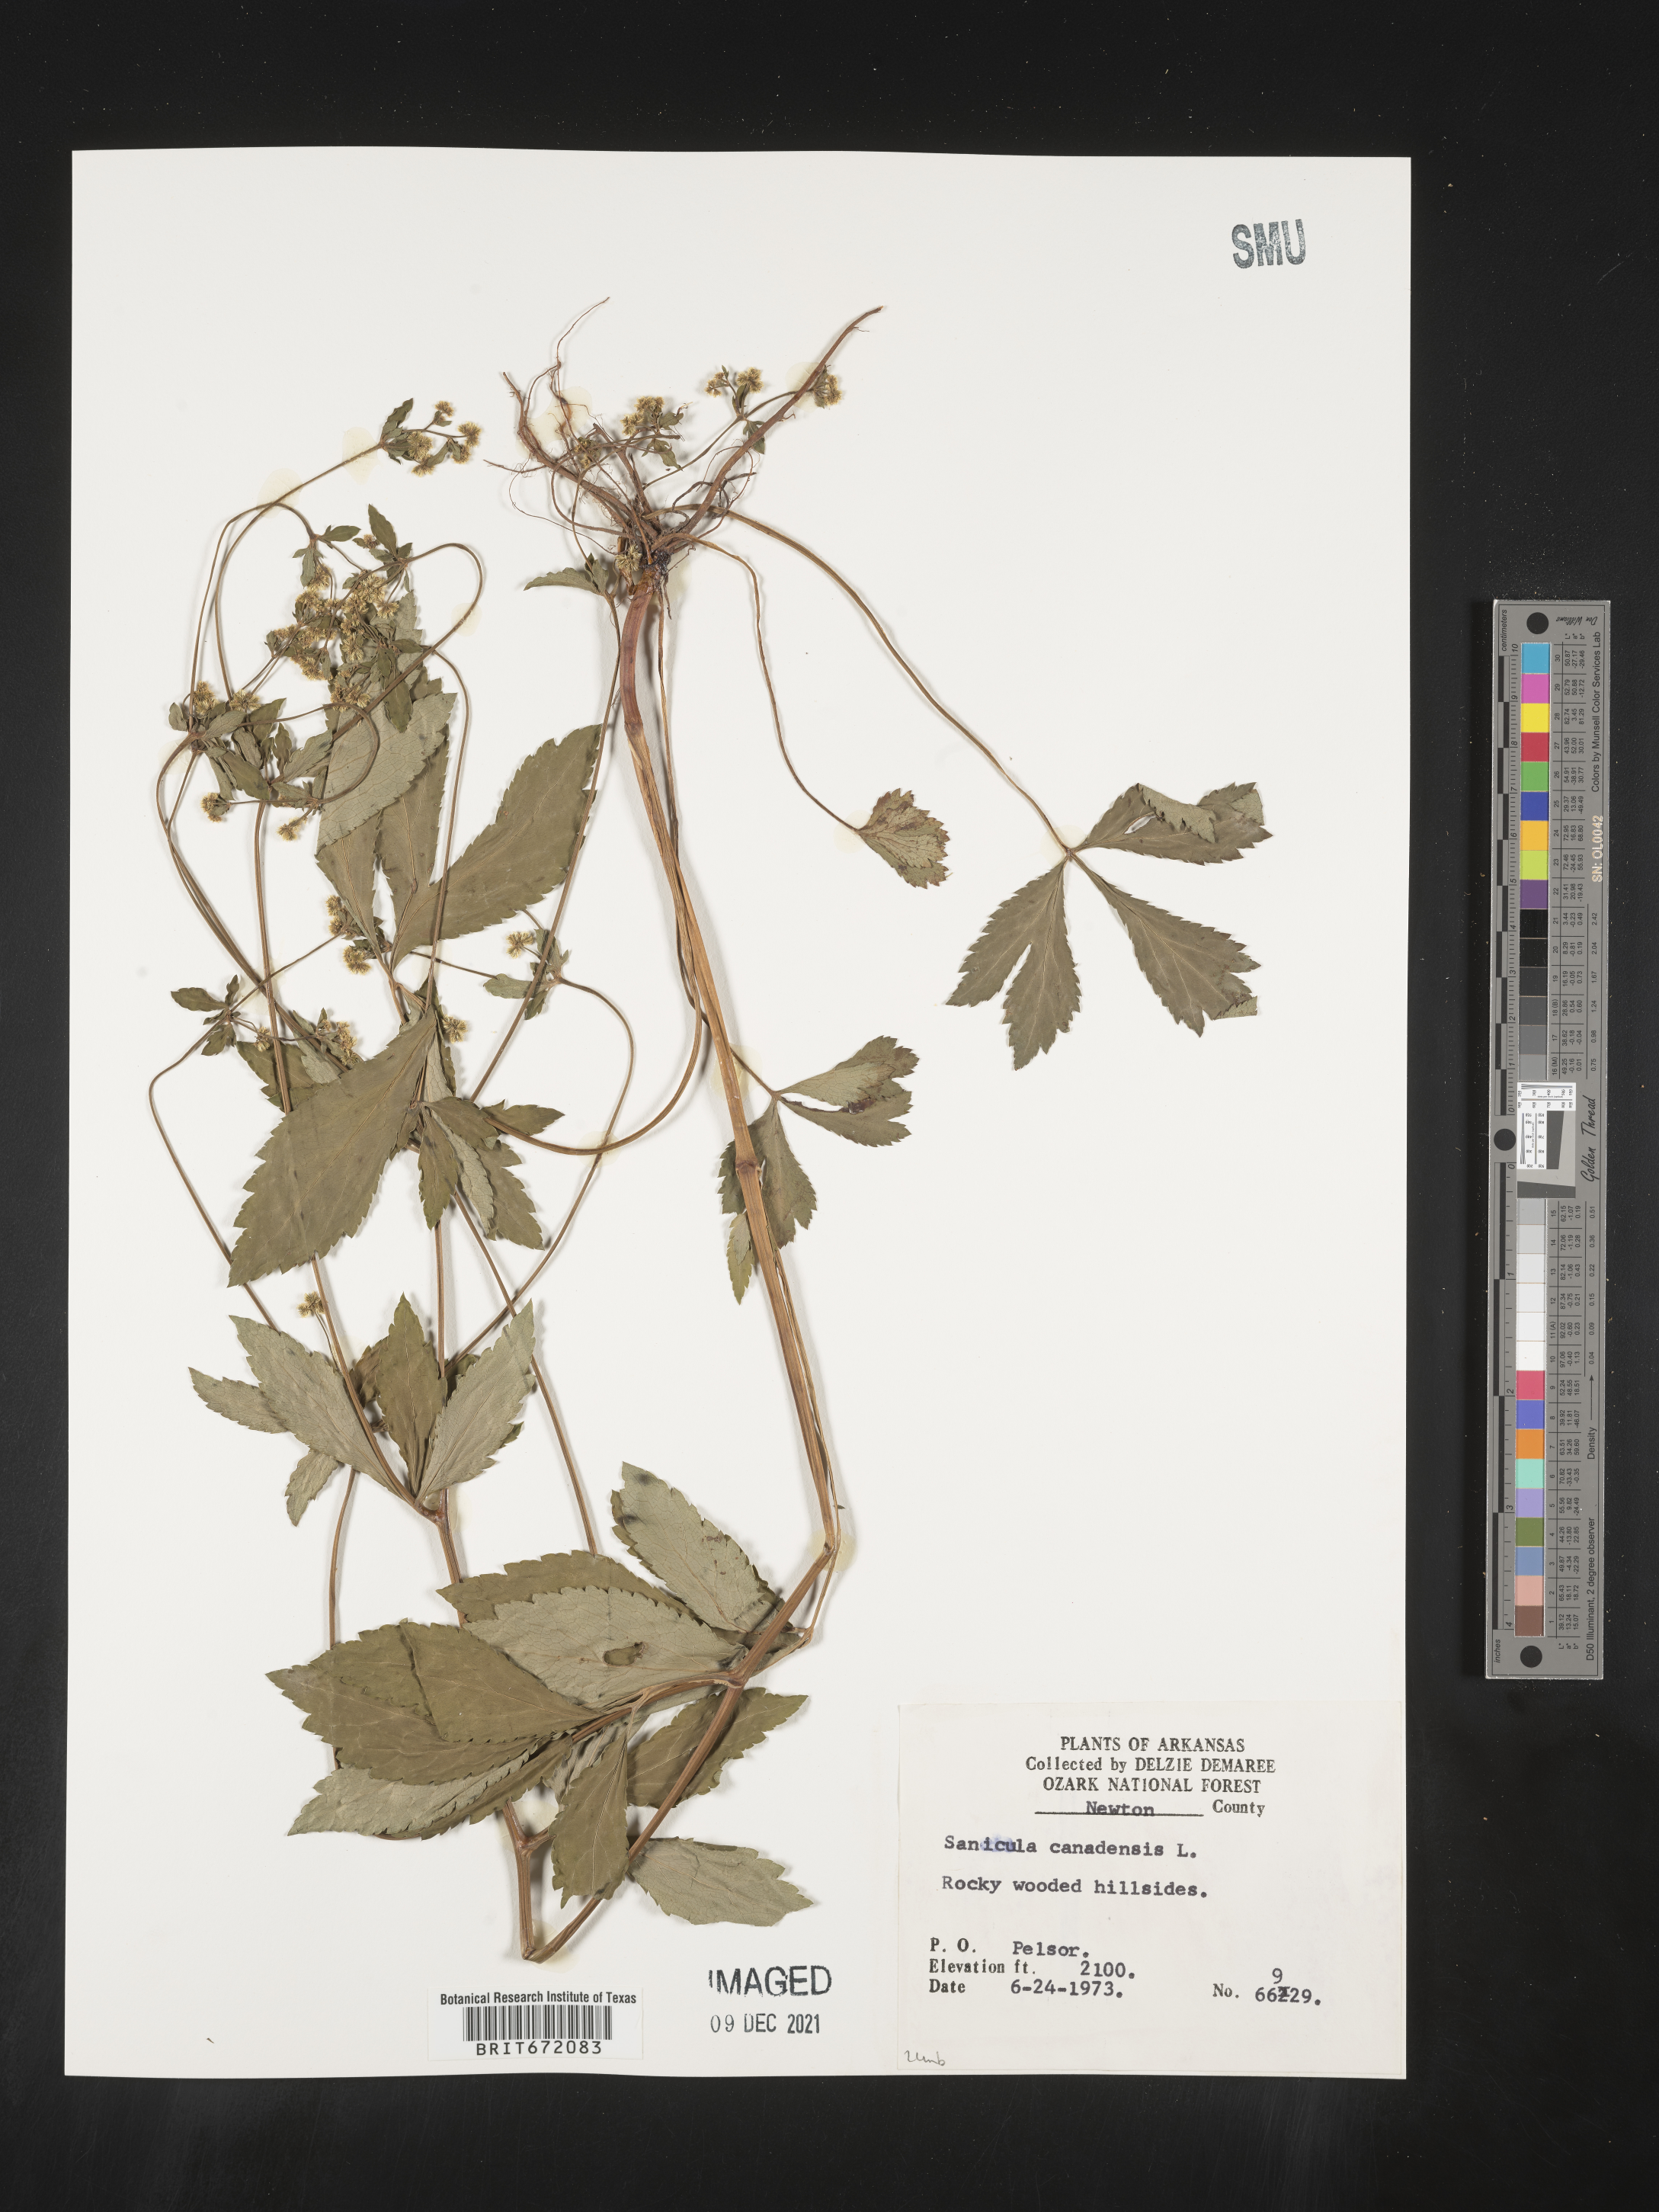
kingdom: Plantae
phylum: Tracheophyta
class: Magnoliopsida
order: Apiales
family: Apiaceae
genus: Sanicula
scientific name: Sanicula canadensis
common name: Canada sanicle
